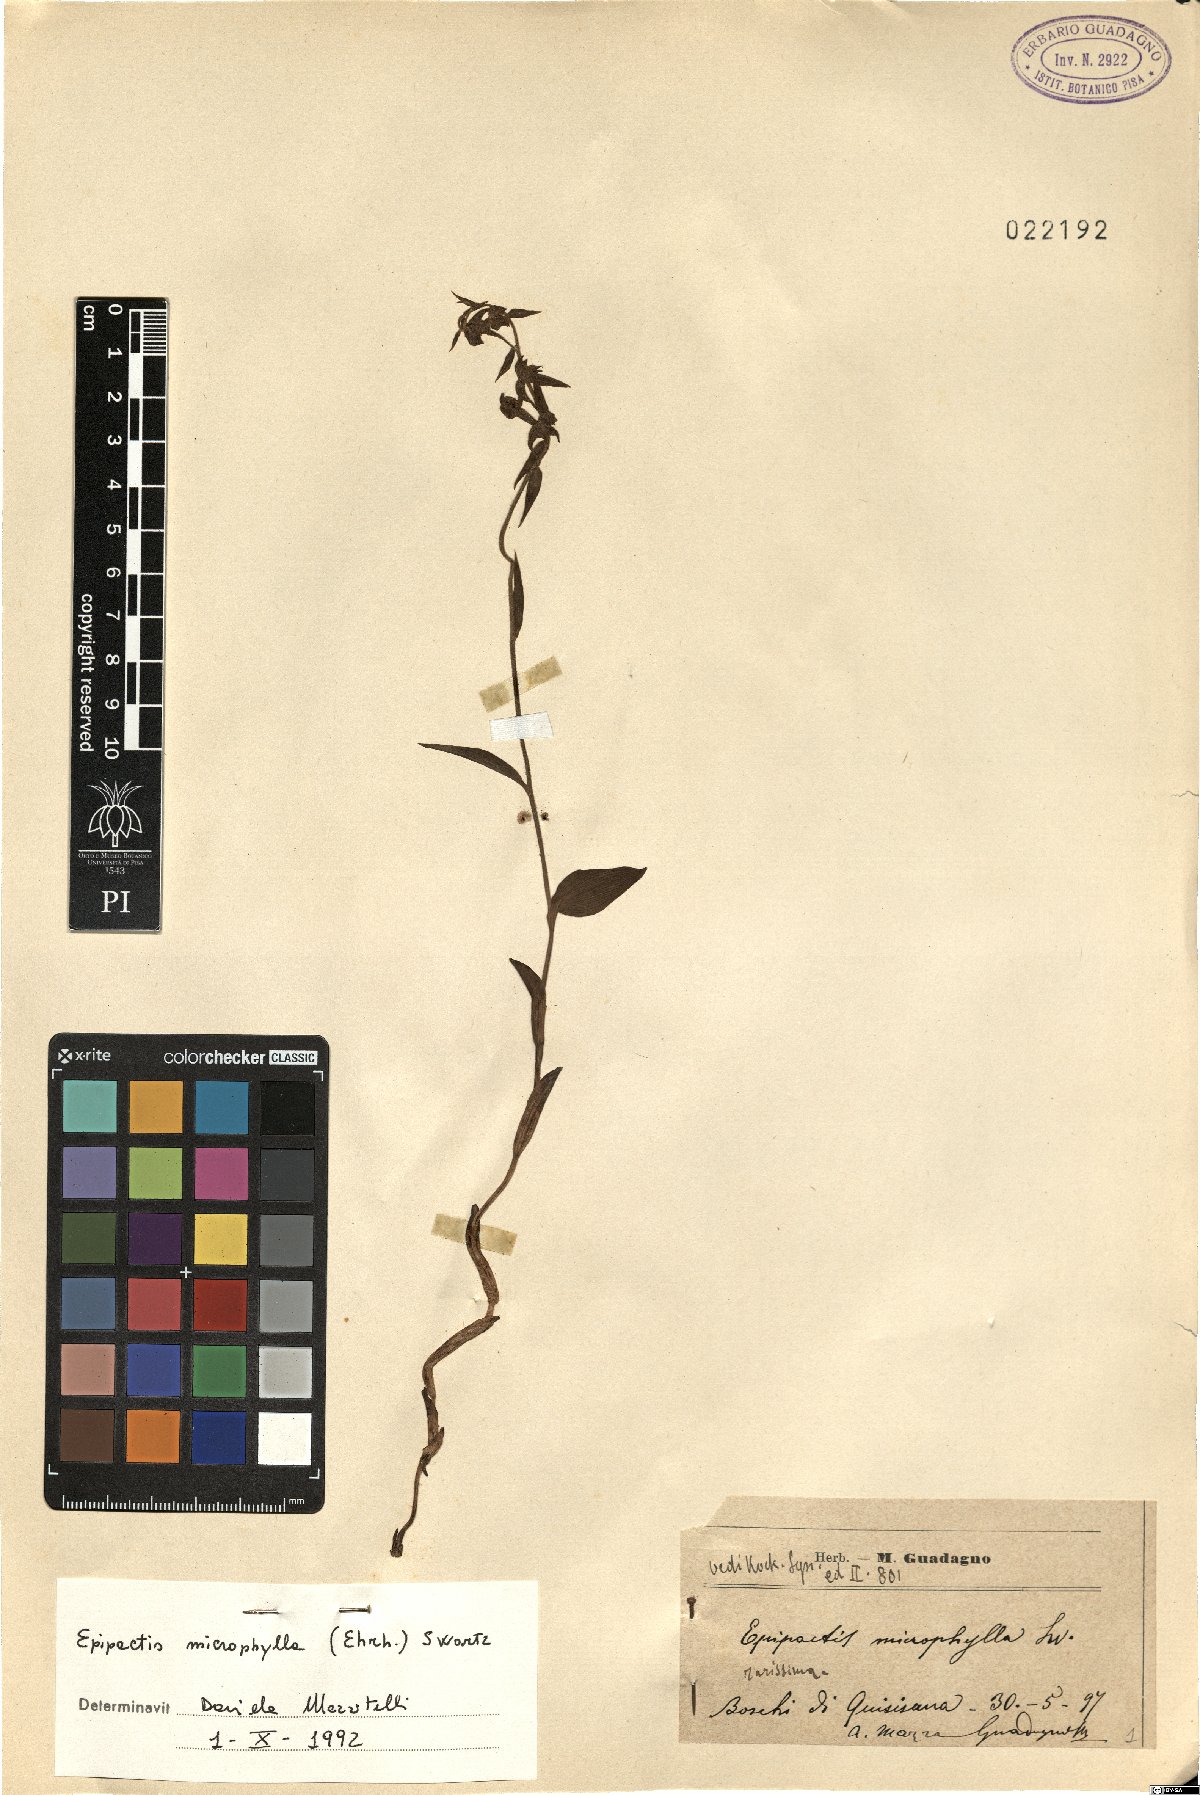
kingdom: Plantae
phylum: Tracheophyta
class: Liliopsida
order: Asparagales
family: Orchidaceae
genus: Epipactis
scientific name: Epipactis microphylla
